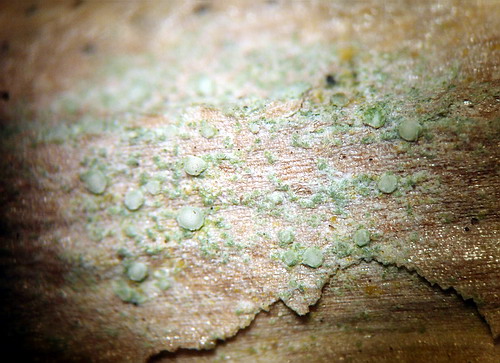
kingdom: Fungi
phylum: Ascomycota
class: Lecanoromycetes
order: Lecanorales
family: Ramalinaceae
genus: Lecania
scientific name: Lecania cyrtella
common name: hylde-lecania
